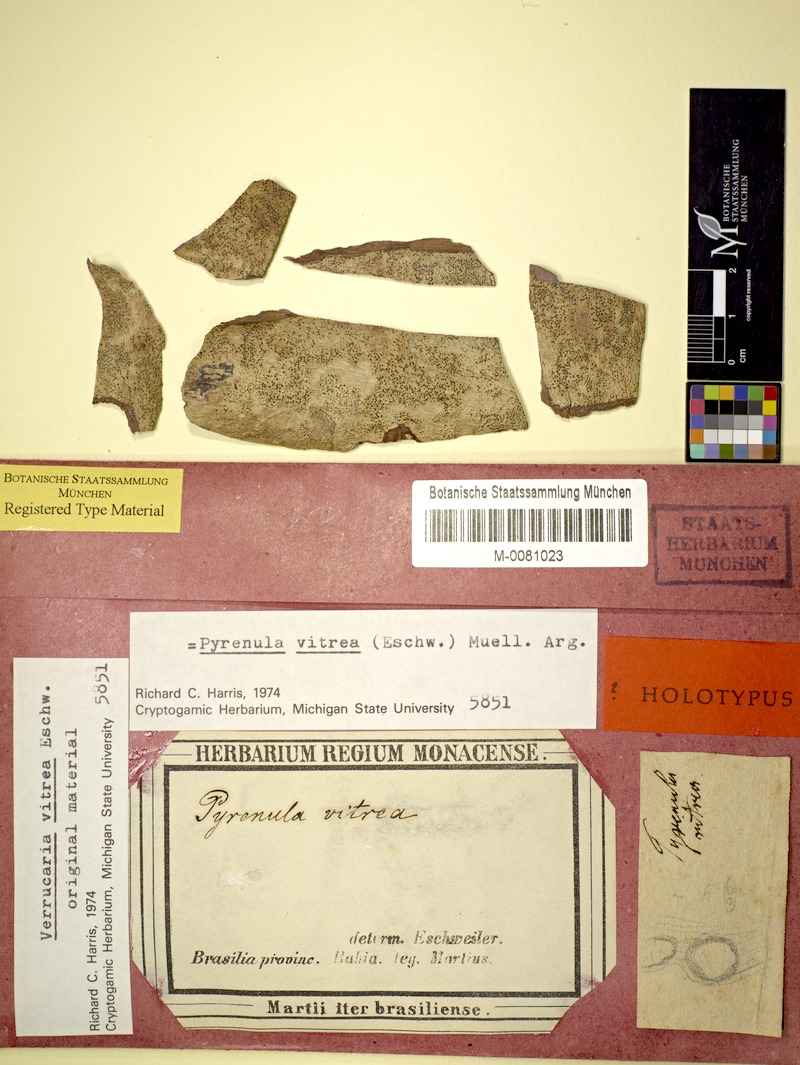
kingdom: Fungi
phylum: Ascomycota
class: Eurotiomycetes
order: Pyrenulales
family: Pyrenulaceae
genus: Pyrenula
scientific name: Pyrenula
